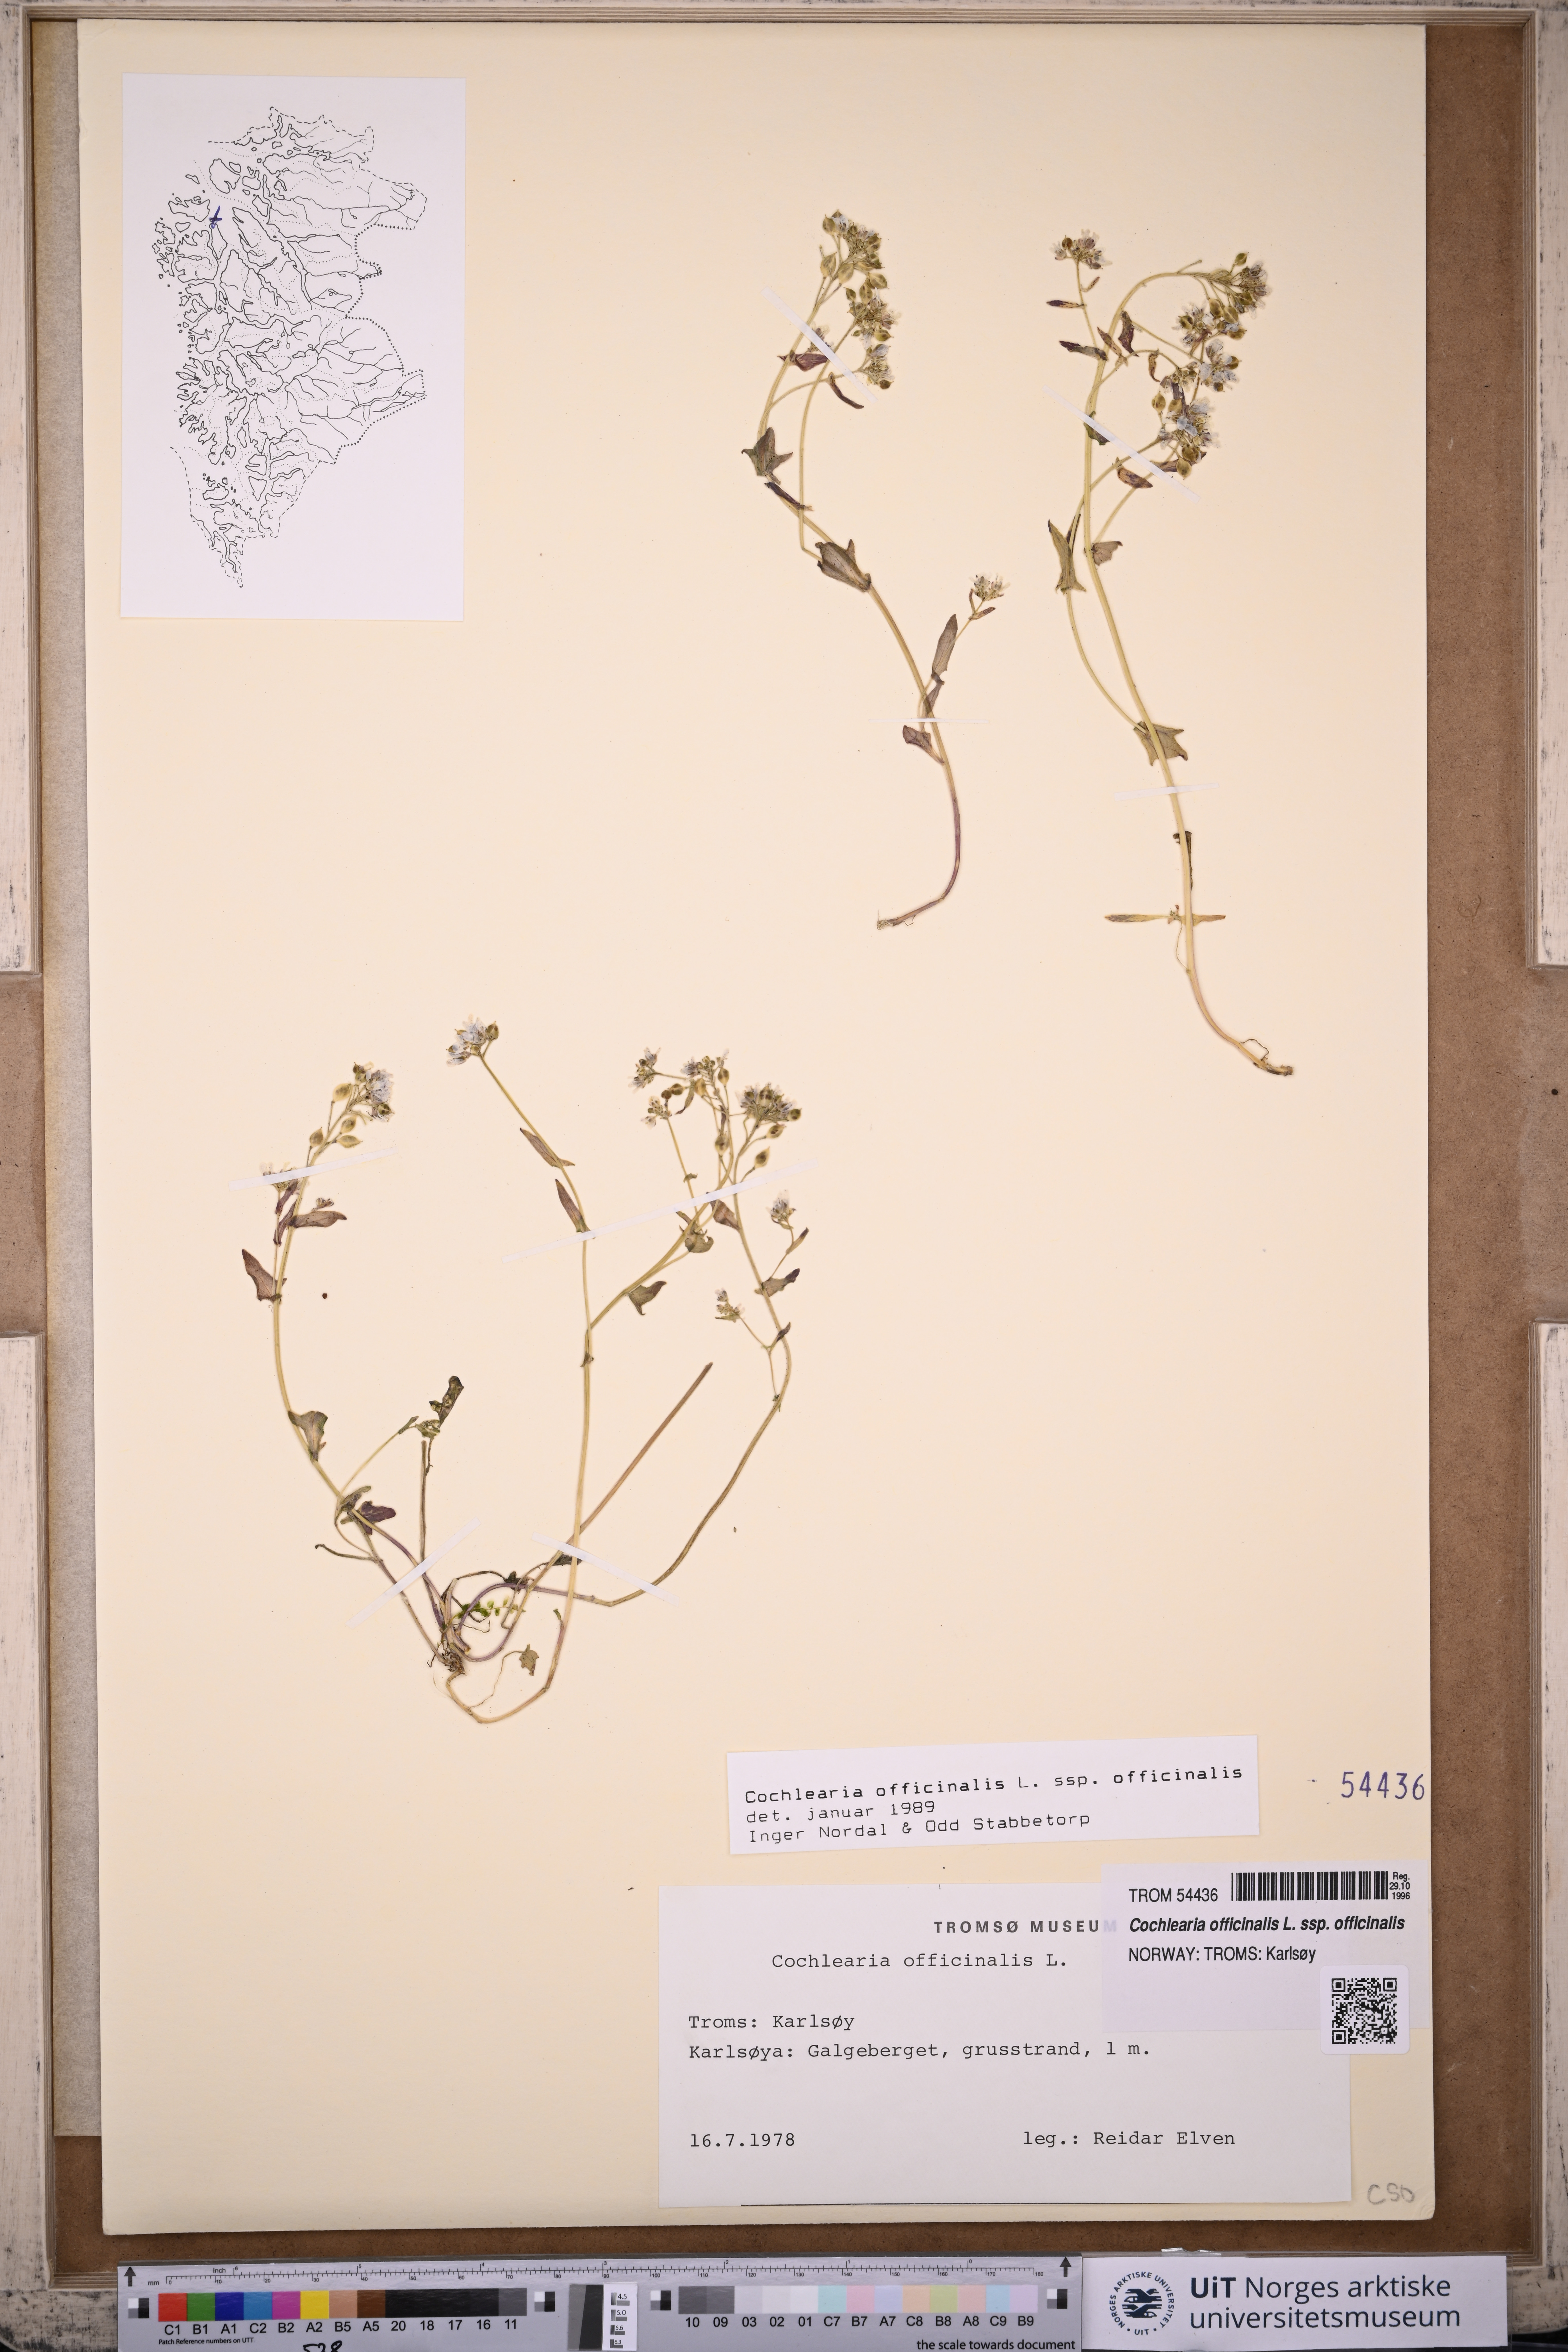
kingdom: Plantae
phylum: Tracheophyta
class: Magnoliopsida
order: Brassicales
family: Brassicaceae
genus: Cochlearia
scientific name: Cochlearia officinalis
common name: Scurvy-grass
